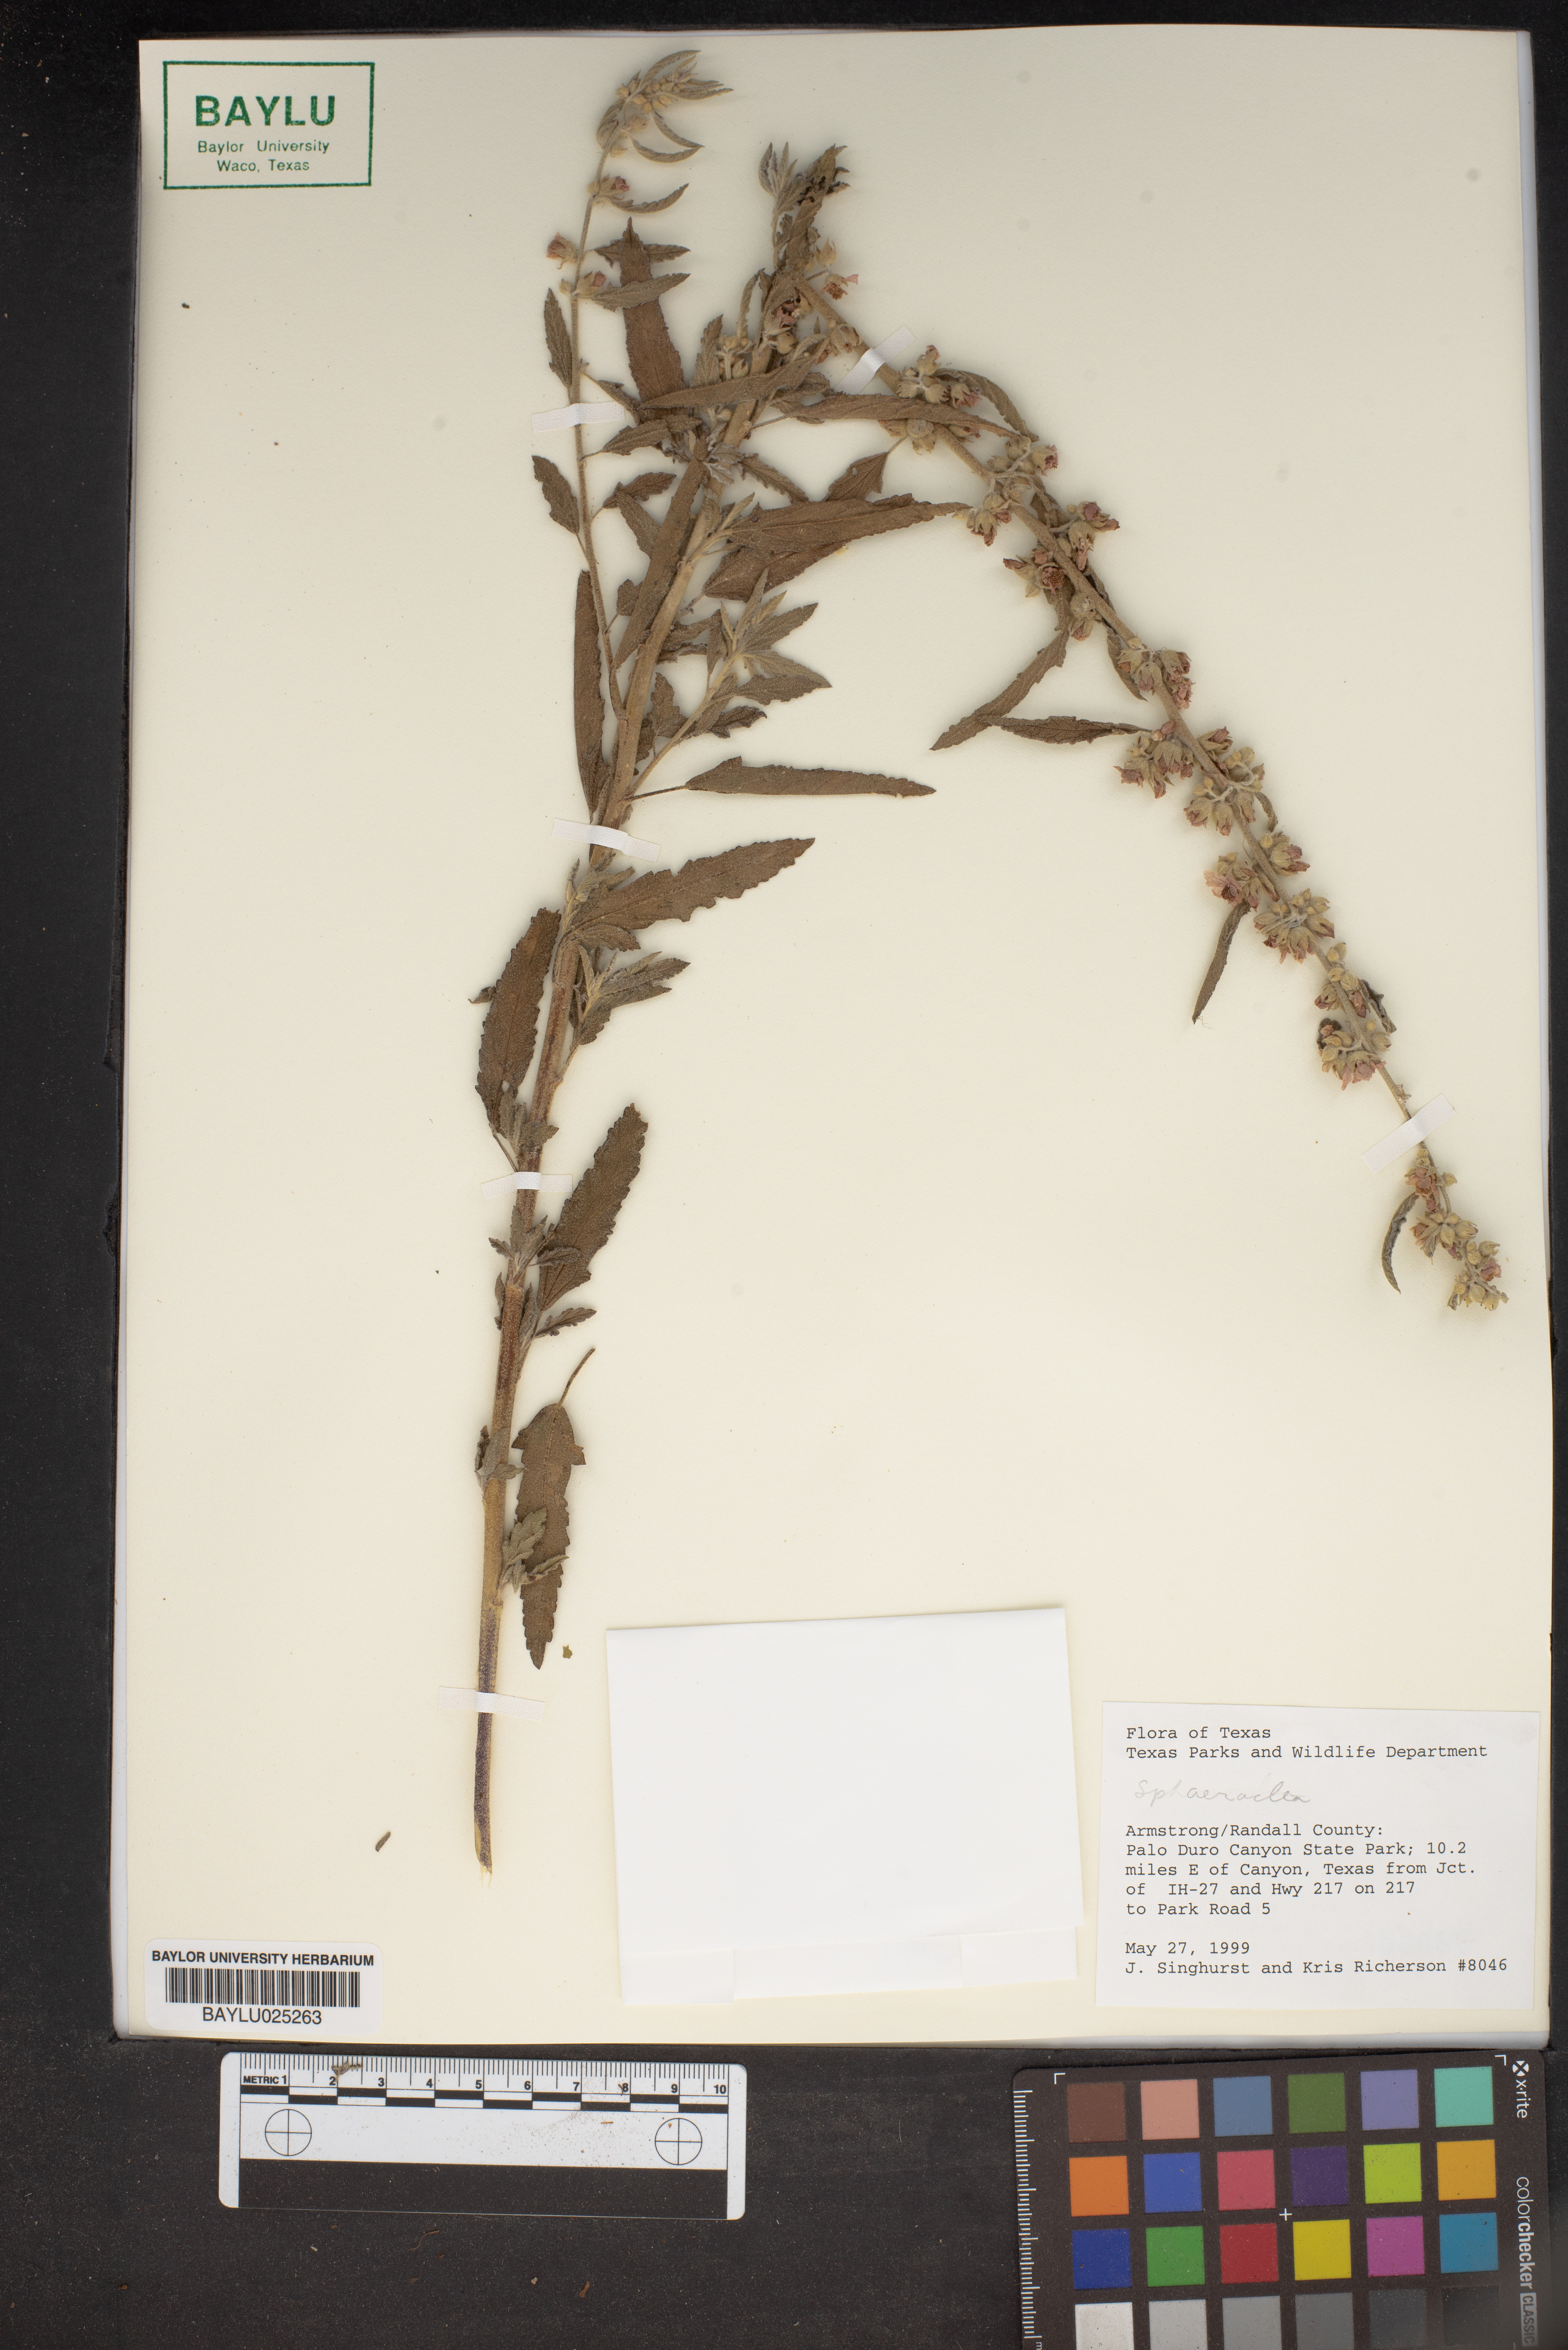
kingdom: Plantae
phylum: Tracheophyta
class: Magnoliopsida
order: Malvales
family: Malvaceae
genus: Sphaeralcea
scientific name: Sphaeralcea
